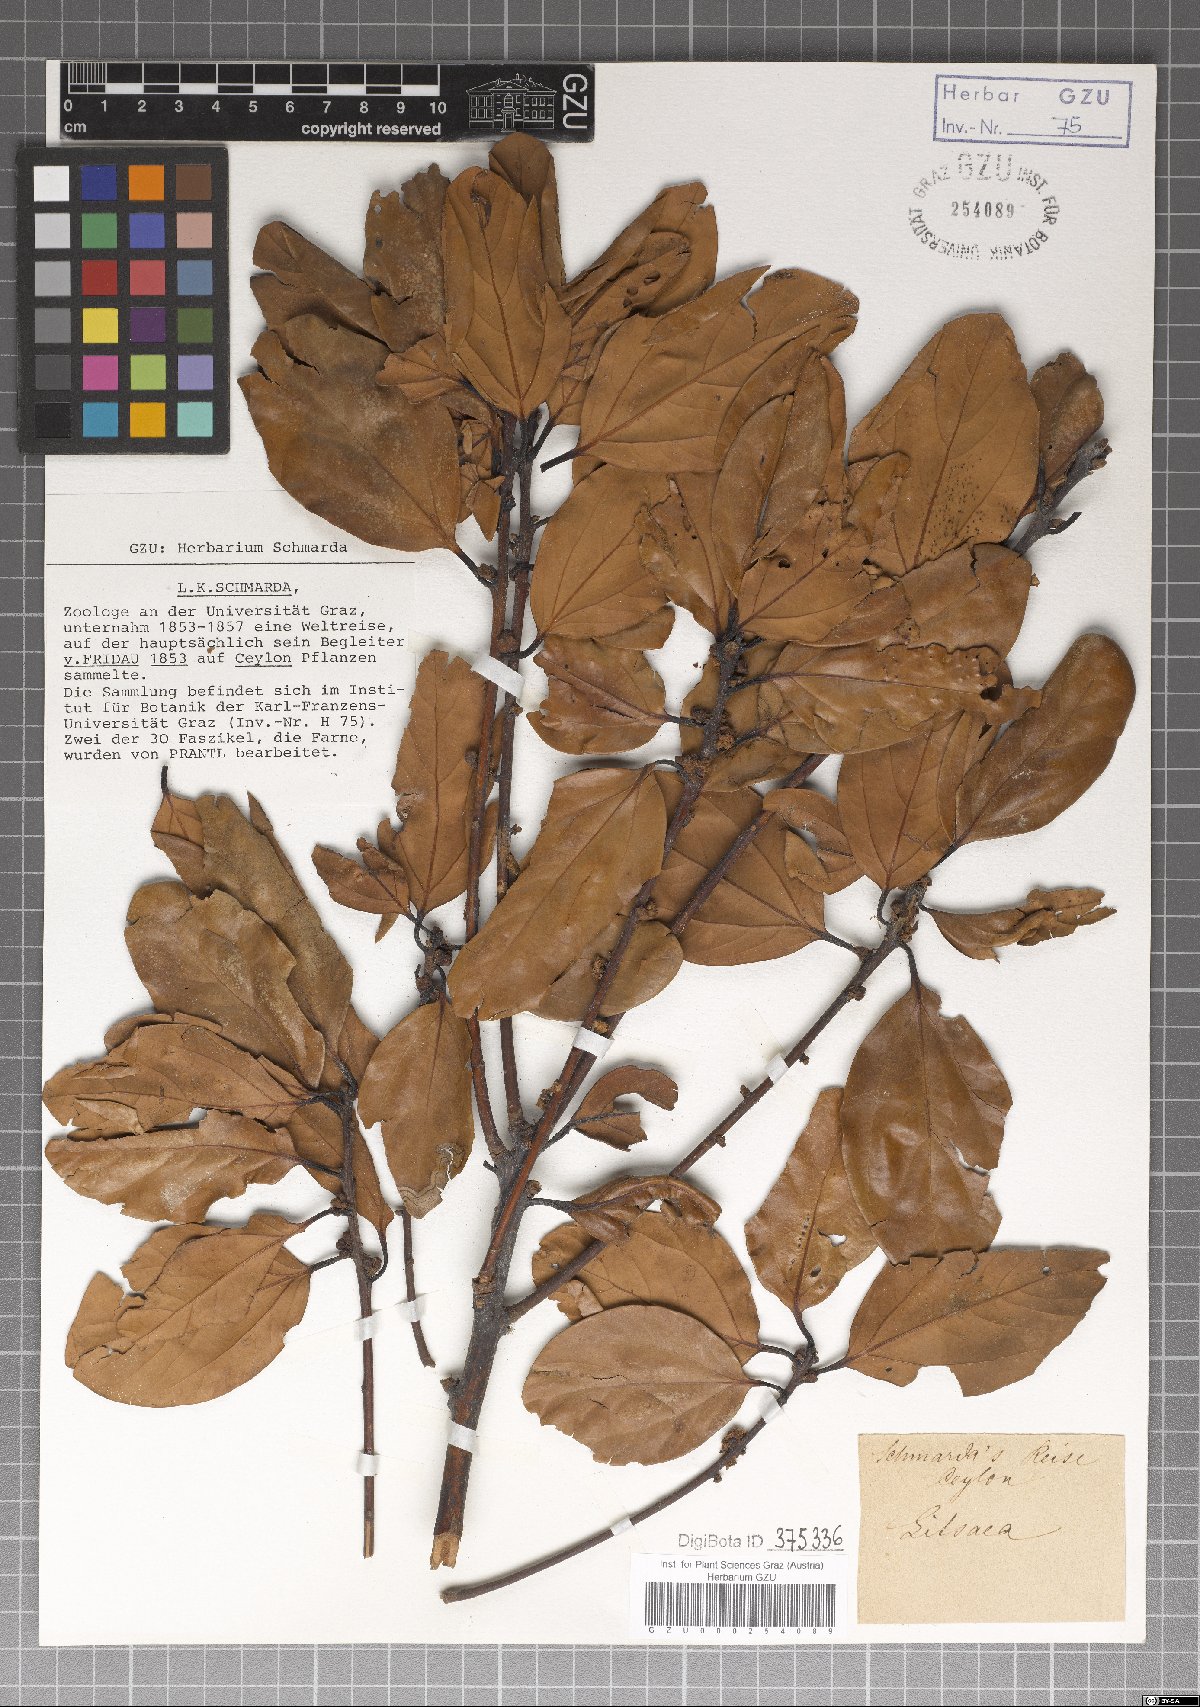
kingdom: Plantae
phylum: Tracheophyta
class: Magnoliopsida
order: Laurales
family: Lauraceae
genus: Litsea
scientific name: Litsea
